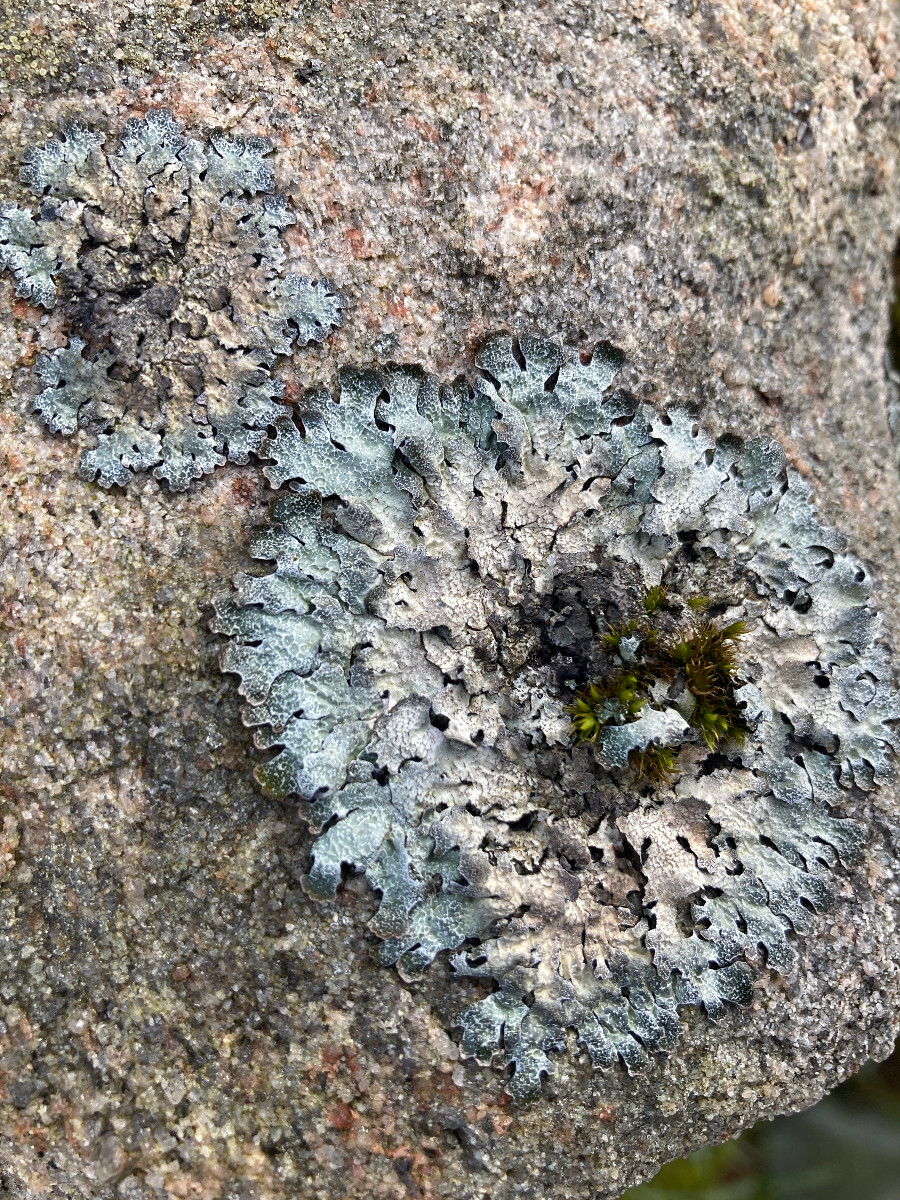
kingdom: Fungi
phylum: Ascomycota
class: Lecanoromycetes
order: Lecanorales
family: Parmeliaceae
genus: Parmelia
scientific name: Parmelia saxatilis
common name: farve-skållav
